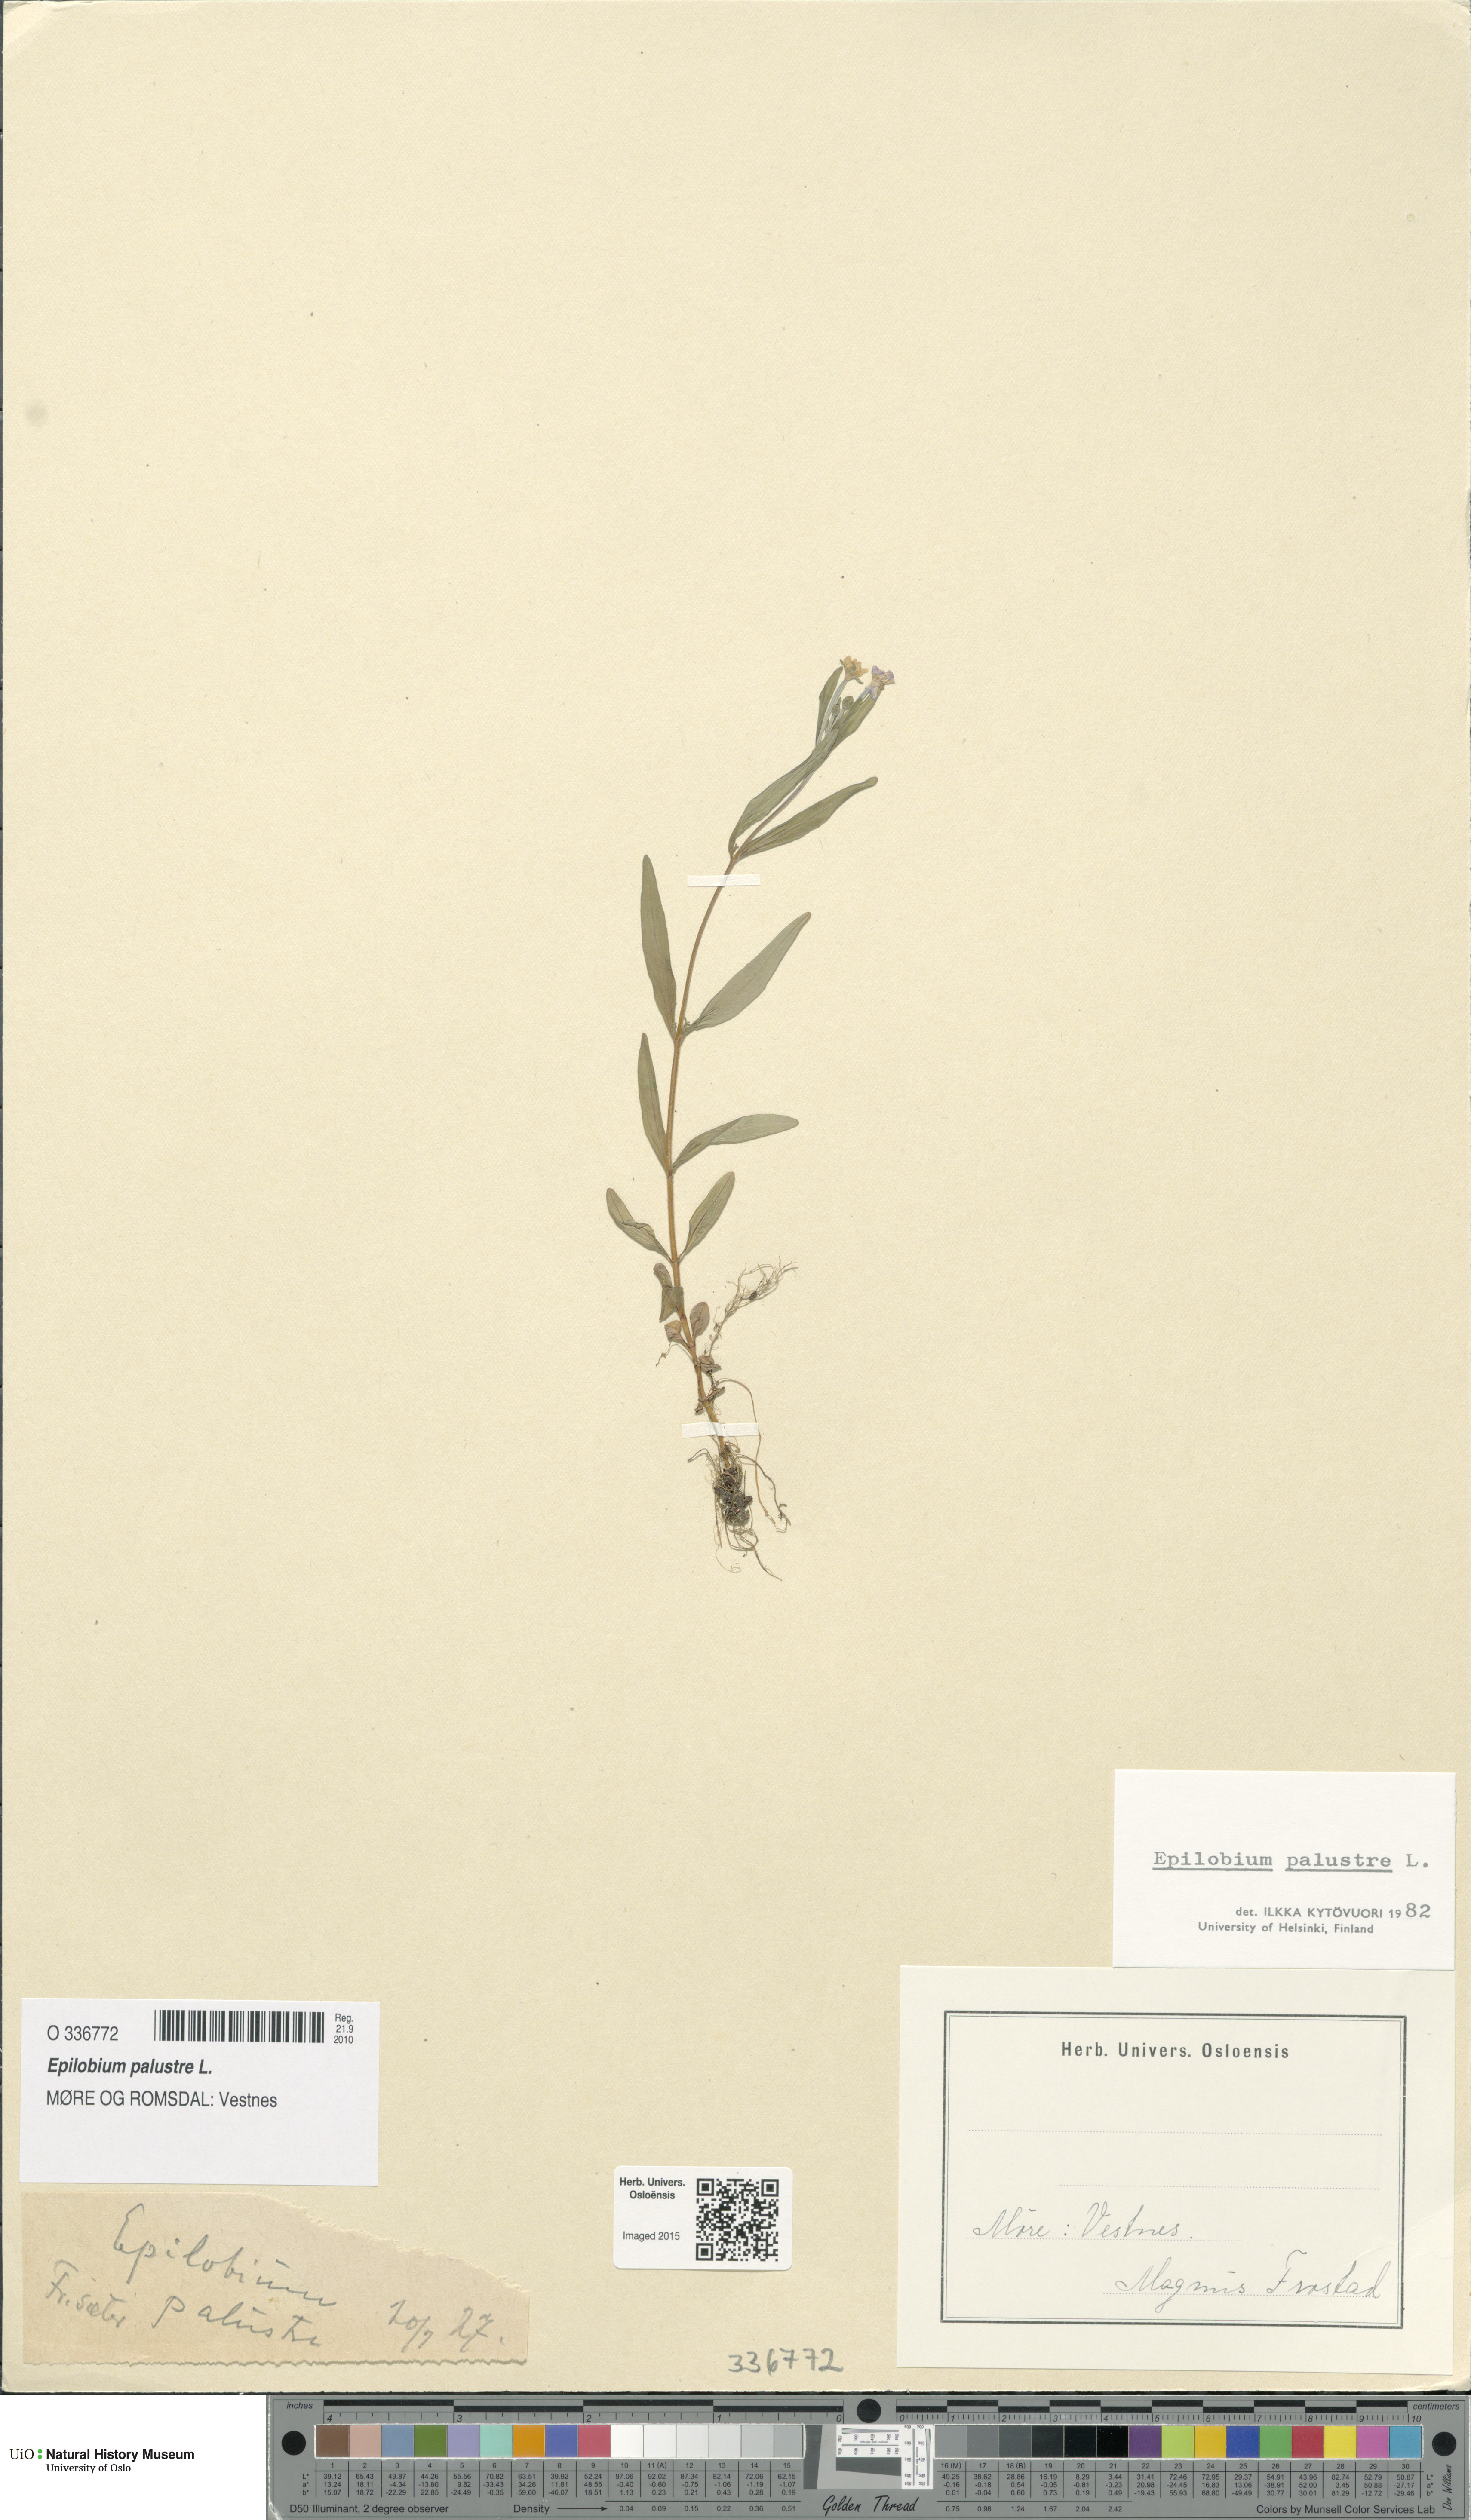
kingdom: Plantae
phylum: Tracheophyta
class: Magnoliopsida
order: Myrtales
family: Onagraceae
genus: Epilobium
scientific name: Epilobium palustre
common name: Marsh willowherb
